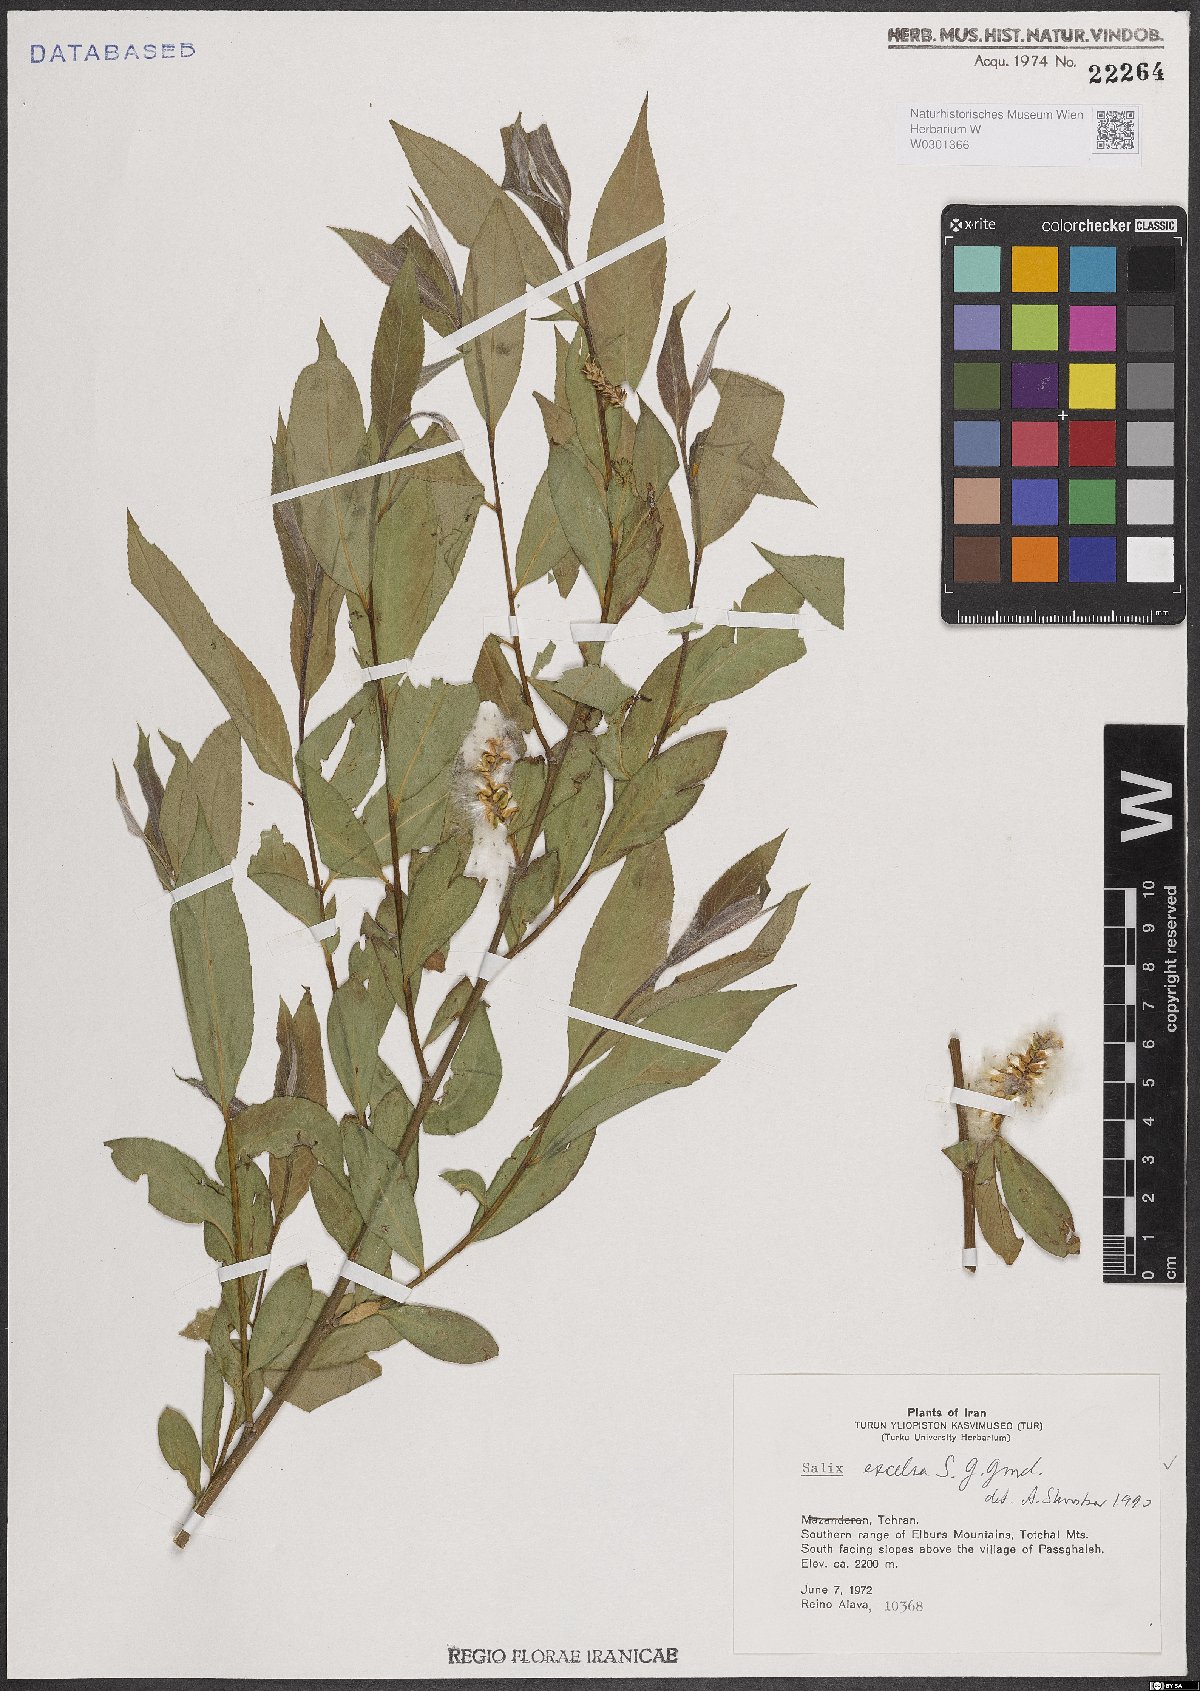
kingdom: Plantae
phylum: Tracheophyta
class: Magnoliopsida
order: Malpighiales
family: Salicaceae
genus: Salix
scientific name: Salix excelsa
